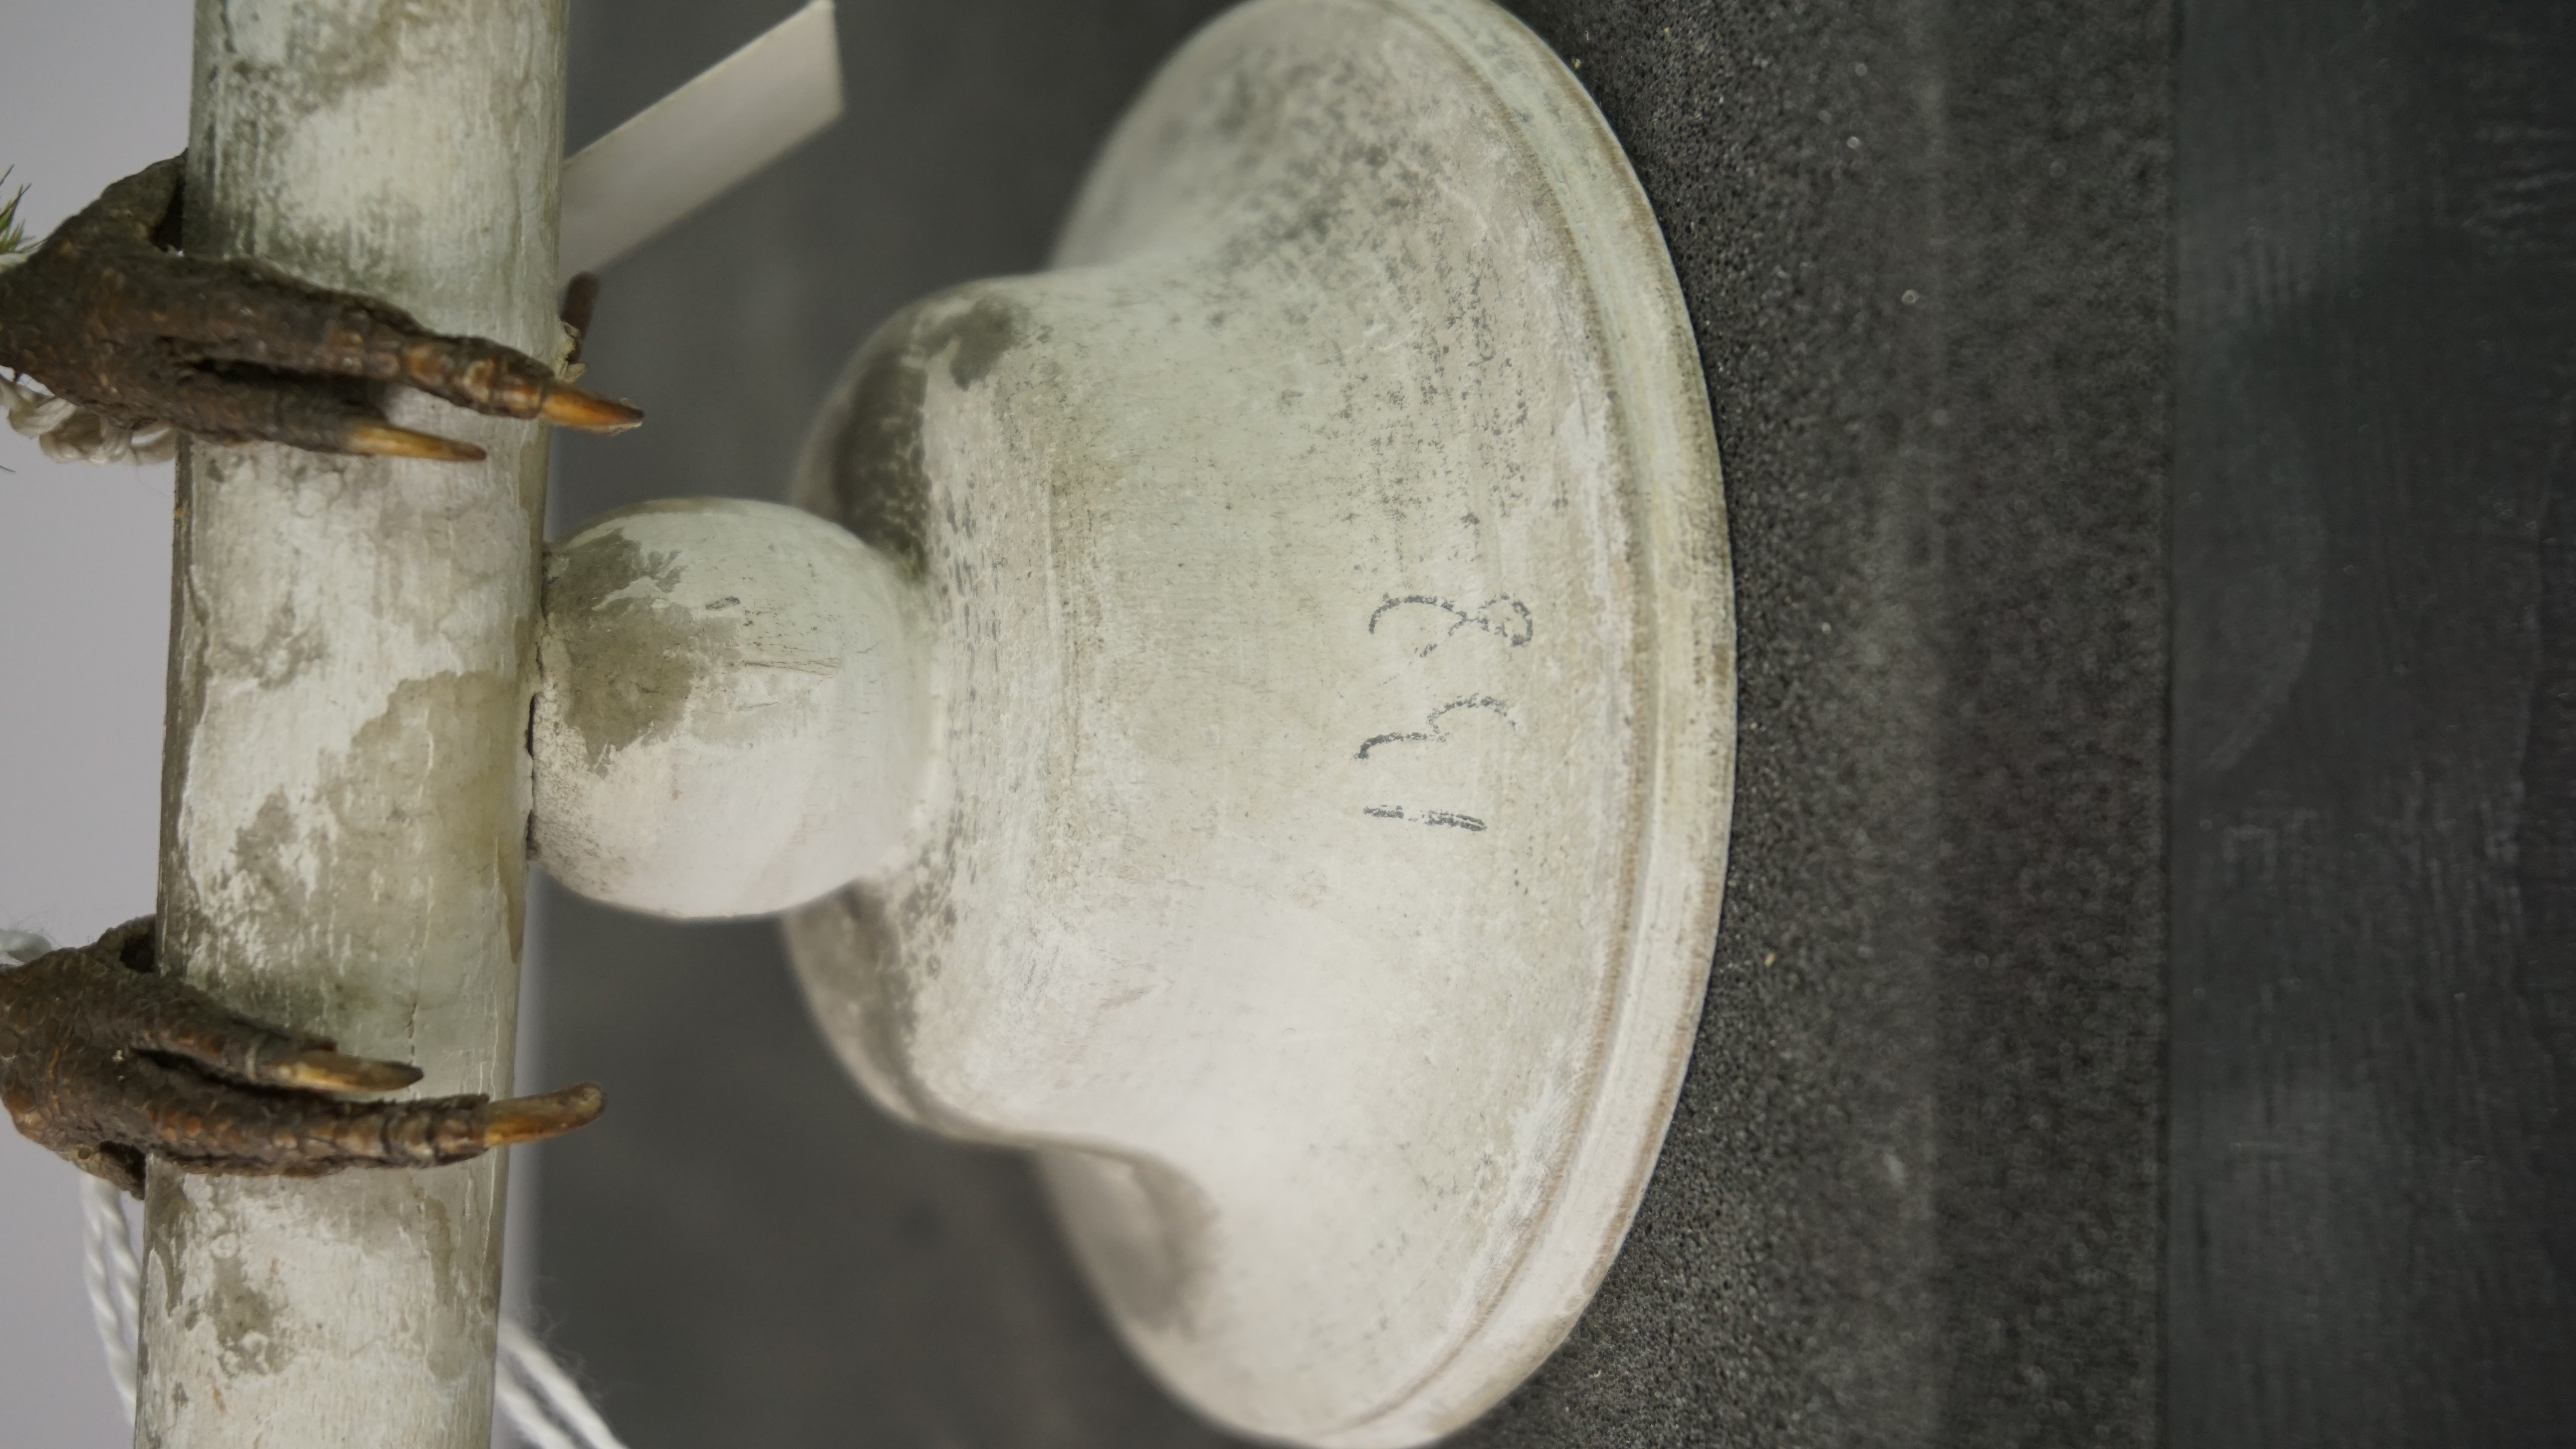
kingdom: Animalia
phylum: Chordata
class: Aves
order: Psittaciformes
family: Psittacidae
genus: Aratinga
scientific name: Aratinga pertinax
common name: Brown-throated parakeet
